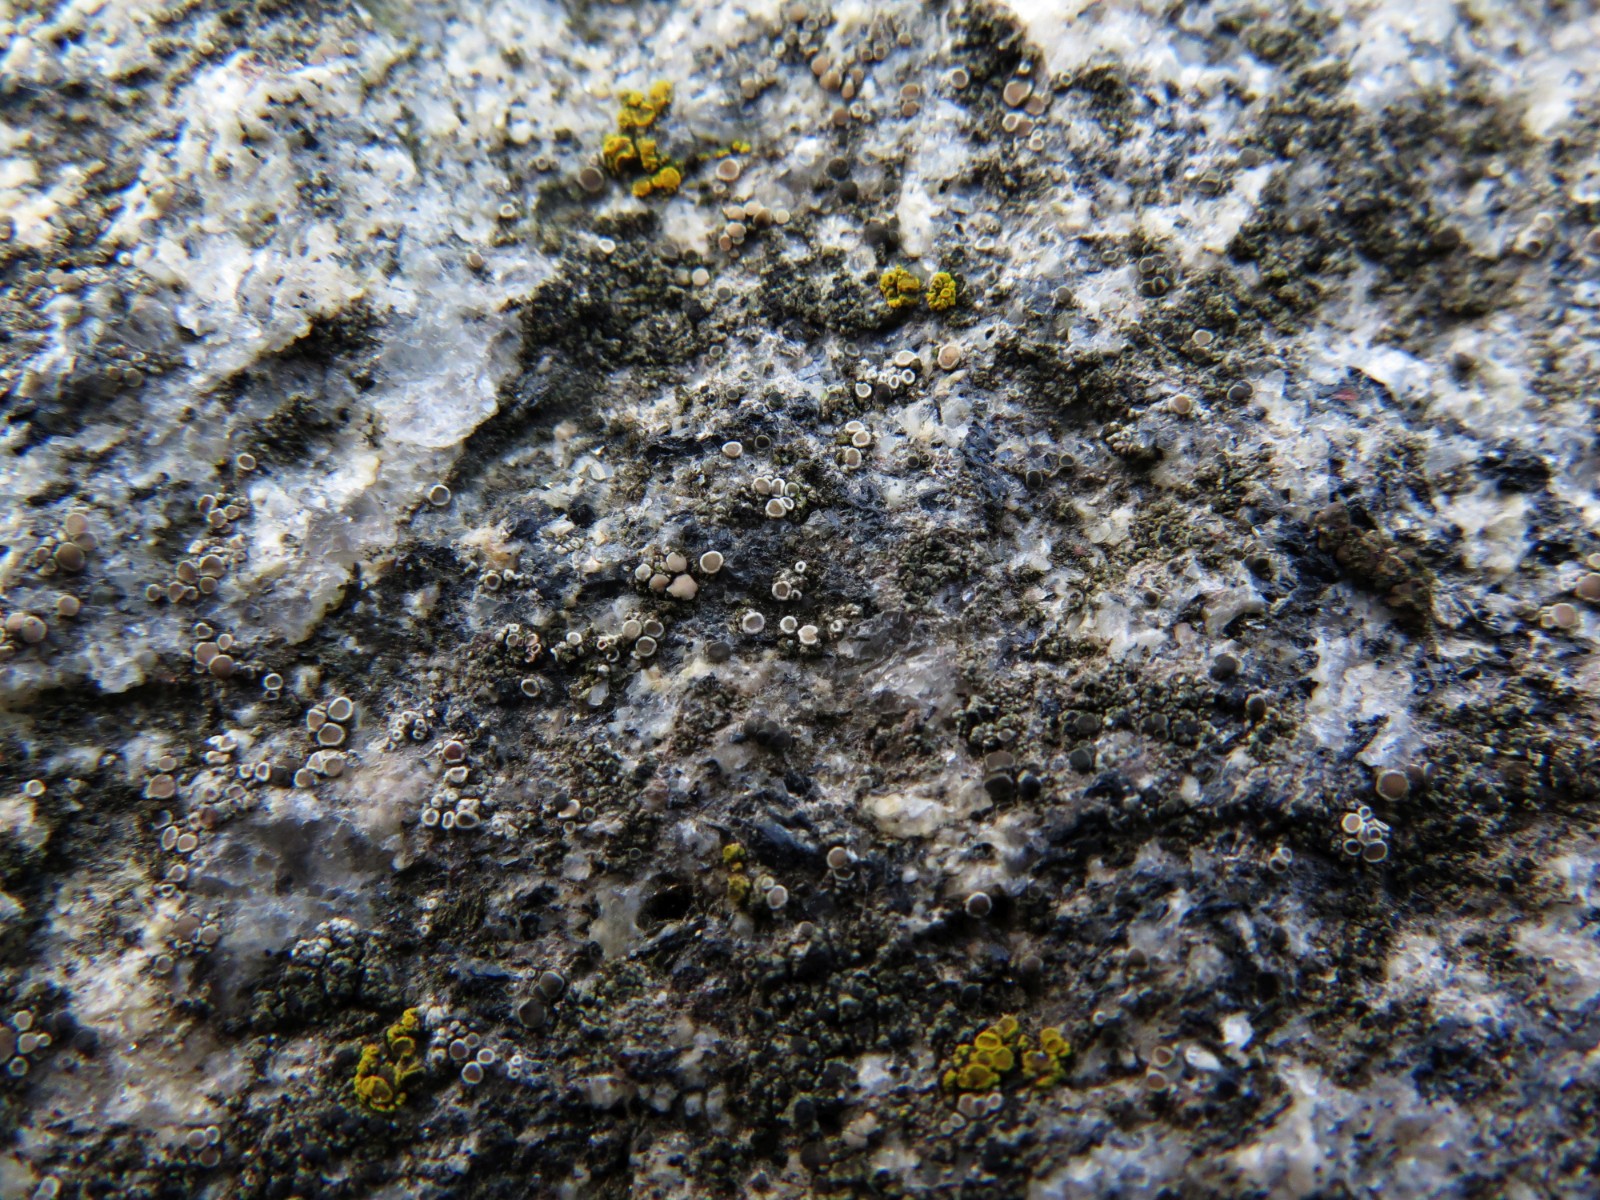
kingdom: Fungi
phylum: Ascomycota
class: Lecanoromycetes
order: Lecanorales
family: Lecanoraceae
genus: Polyozosia
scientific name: Polyozosia dispersa
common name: spredt kantskivelav
